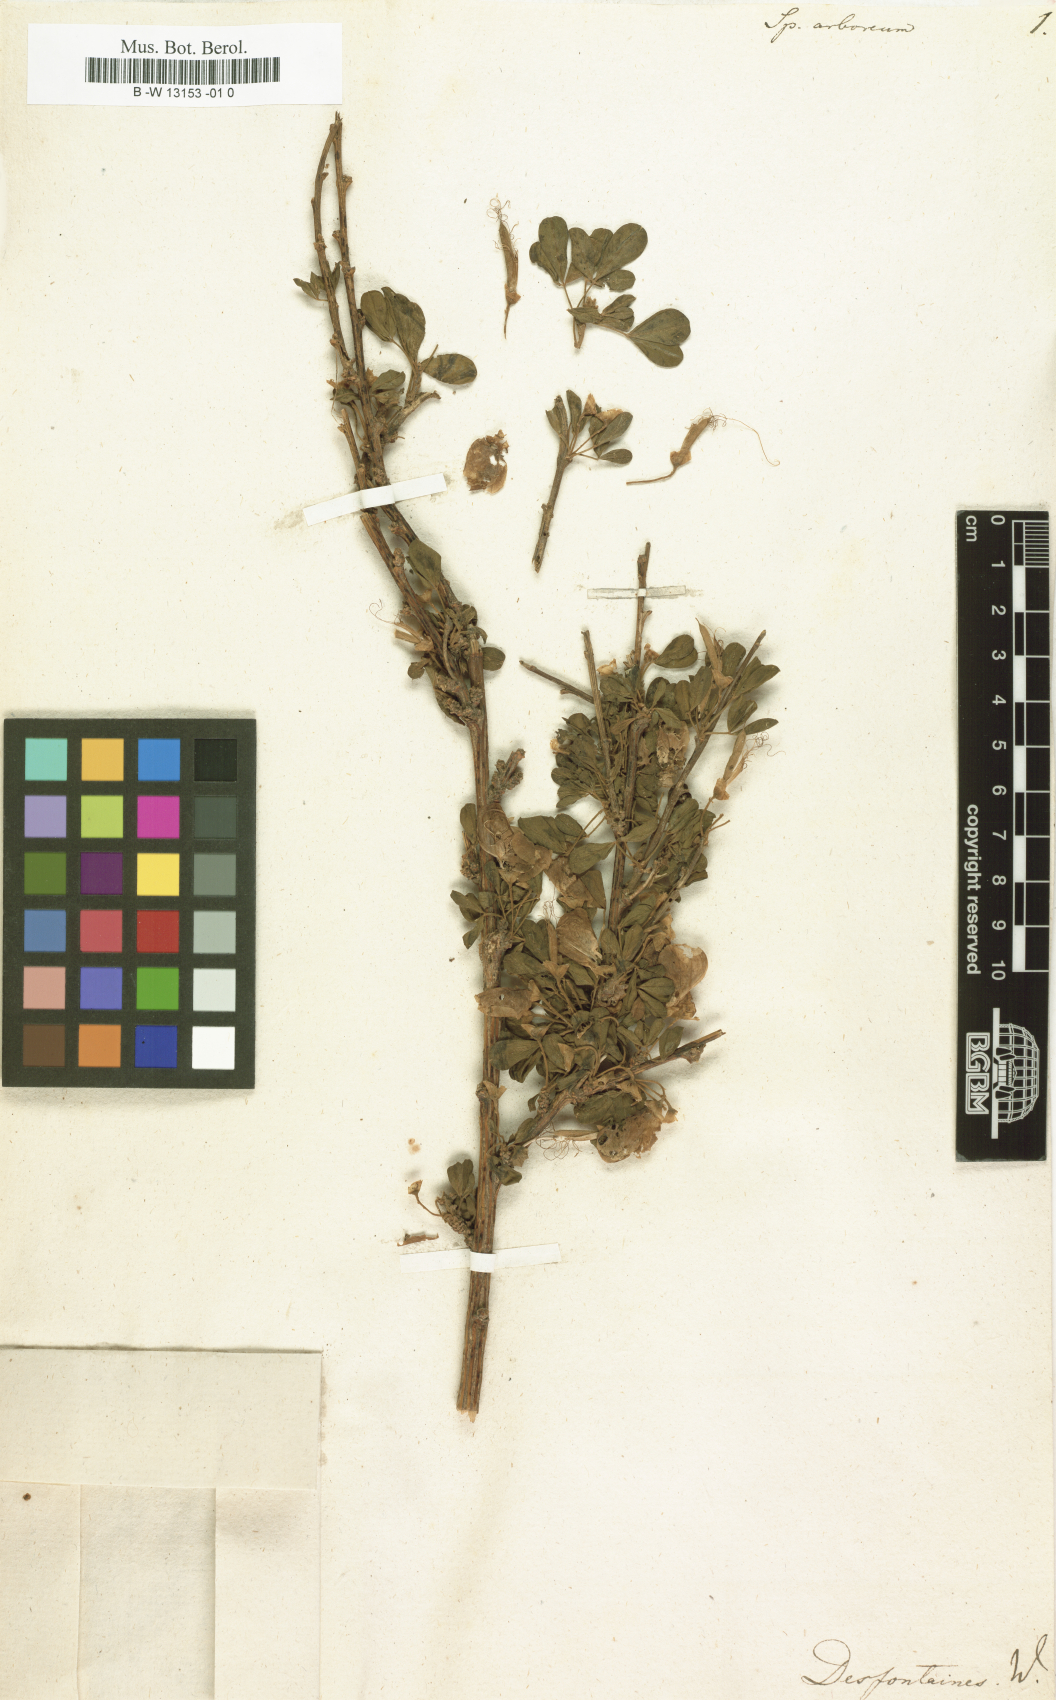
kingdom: Plantae
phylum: Tracheophyta
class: Magnoliopsida
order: Fabales
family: Fabaceae
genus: Cytisus
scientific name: Cytisus arboreus
